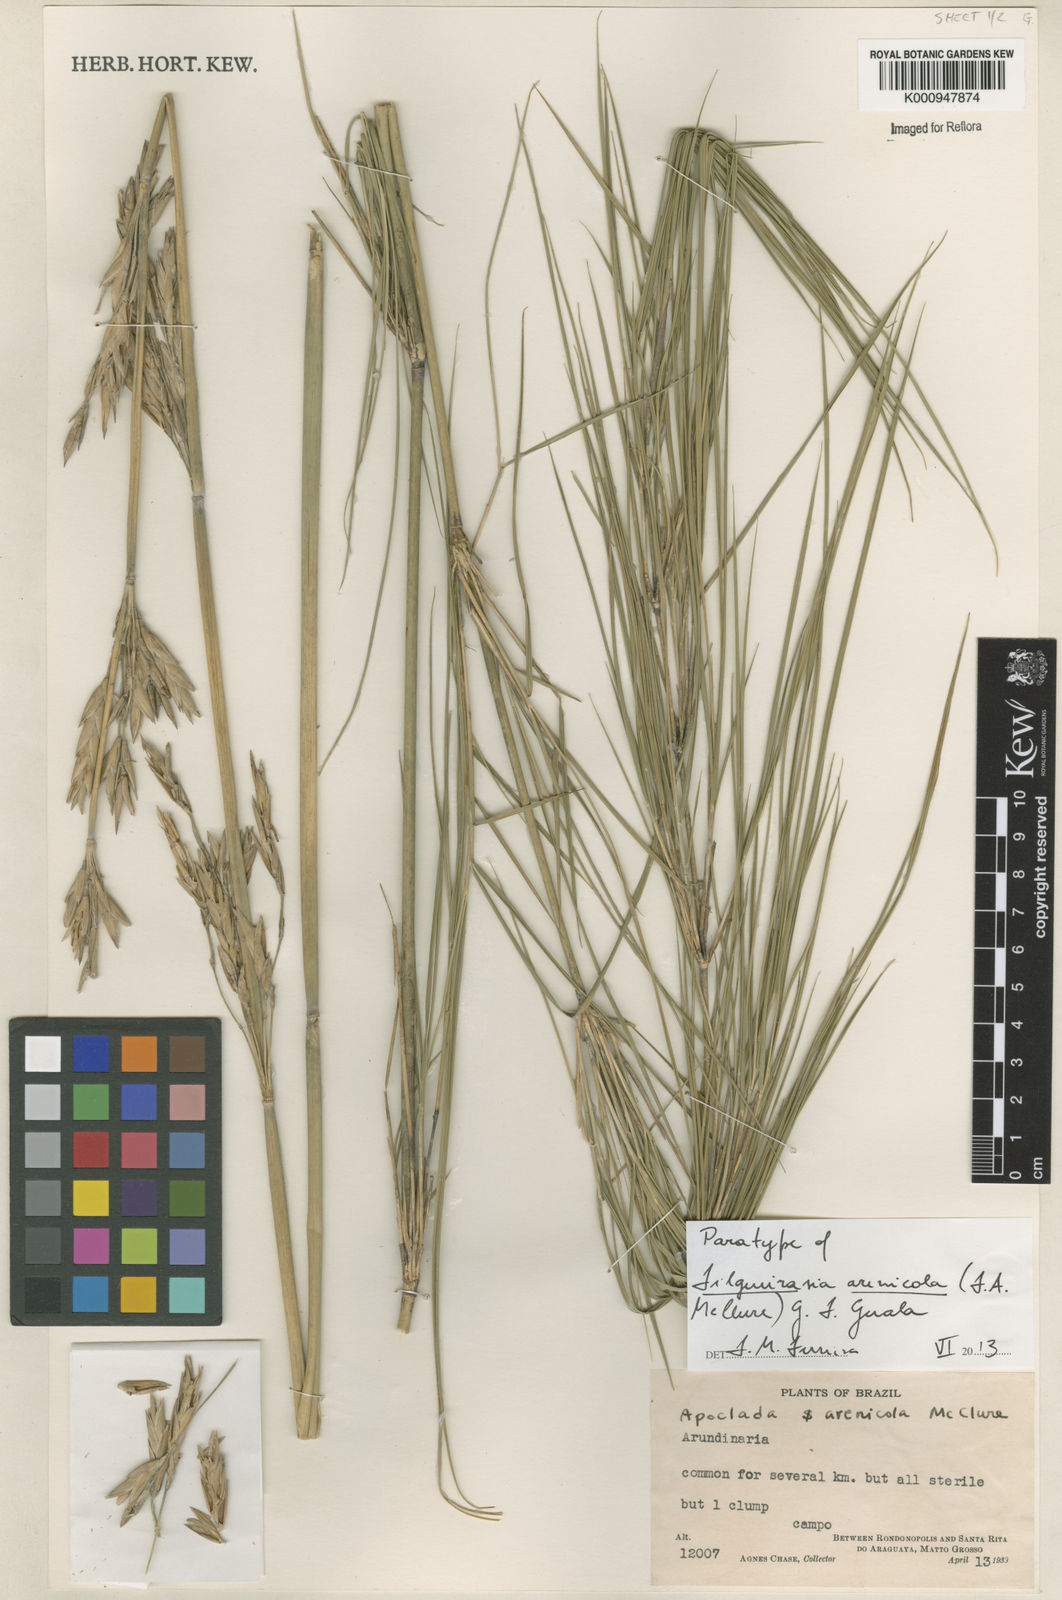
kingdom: Plantae
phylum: Tracheophyta
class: Liliopsida
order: Poales
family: Poaceae
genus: Filgueirasia
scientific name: Filgueirasia arenicola
